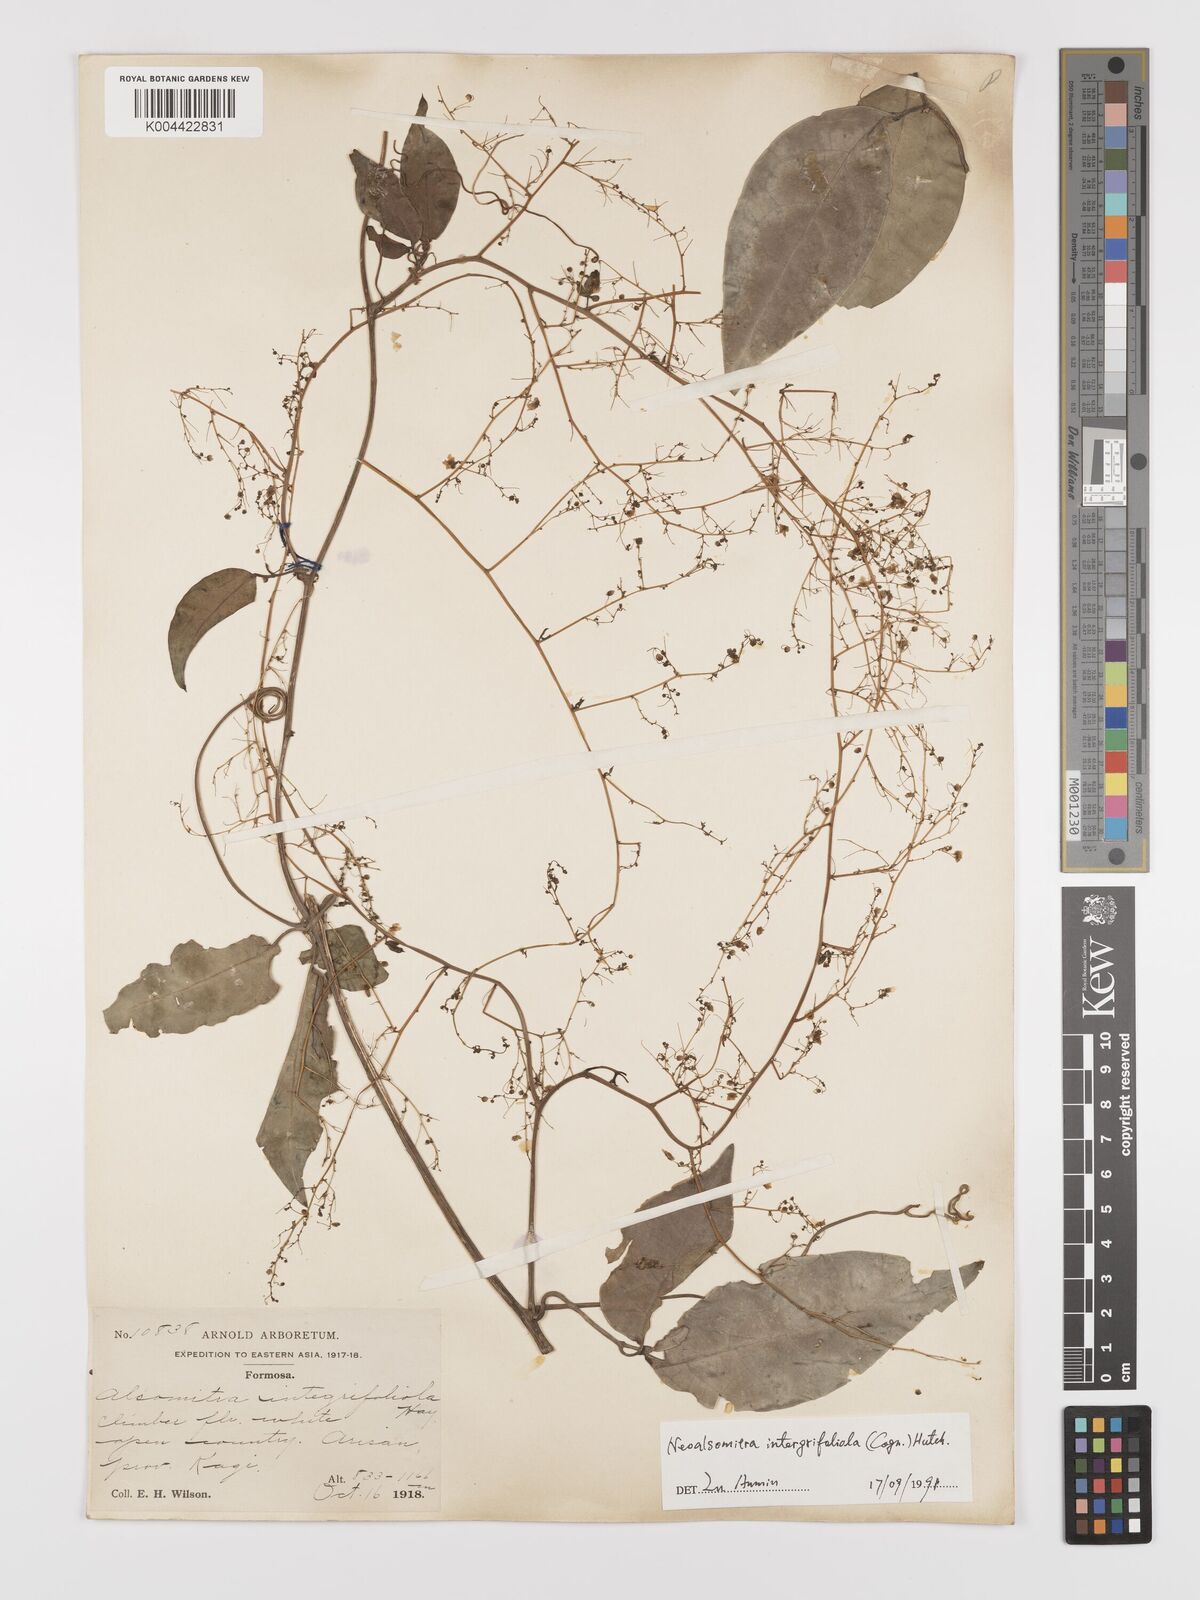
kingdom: Plantae
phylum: Tracheophyta
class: Magnoliopsida
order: Cucurbitales
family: Cucurbitaceae
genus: Neoalsomitra
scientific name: Neoalsomitra clavigera
